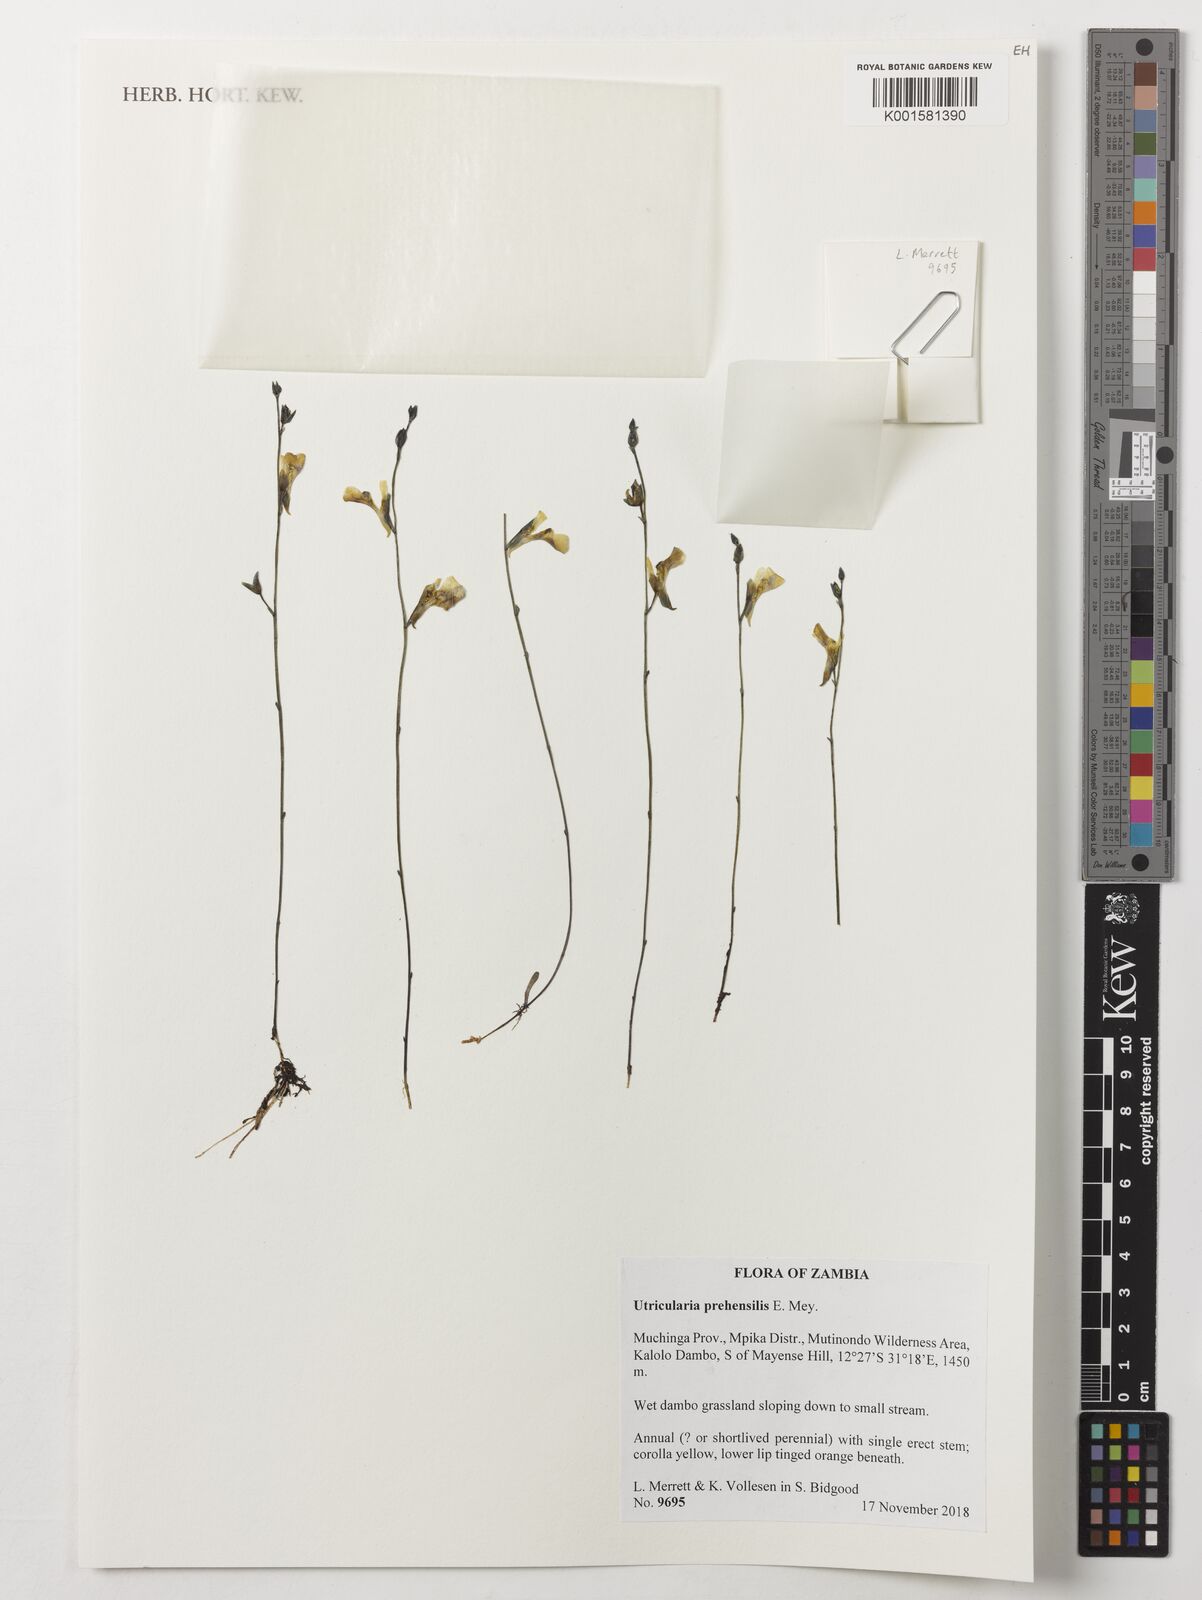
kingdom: Plantae
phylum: Tracheophyta
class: Magnoliopsida
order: Lamiales
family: Lentibulariaceae
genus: Utricularia
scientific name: Utricularia prehensilis
